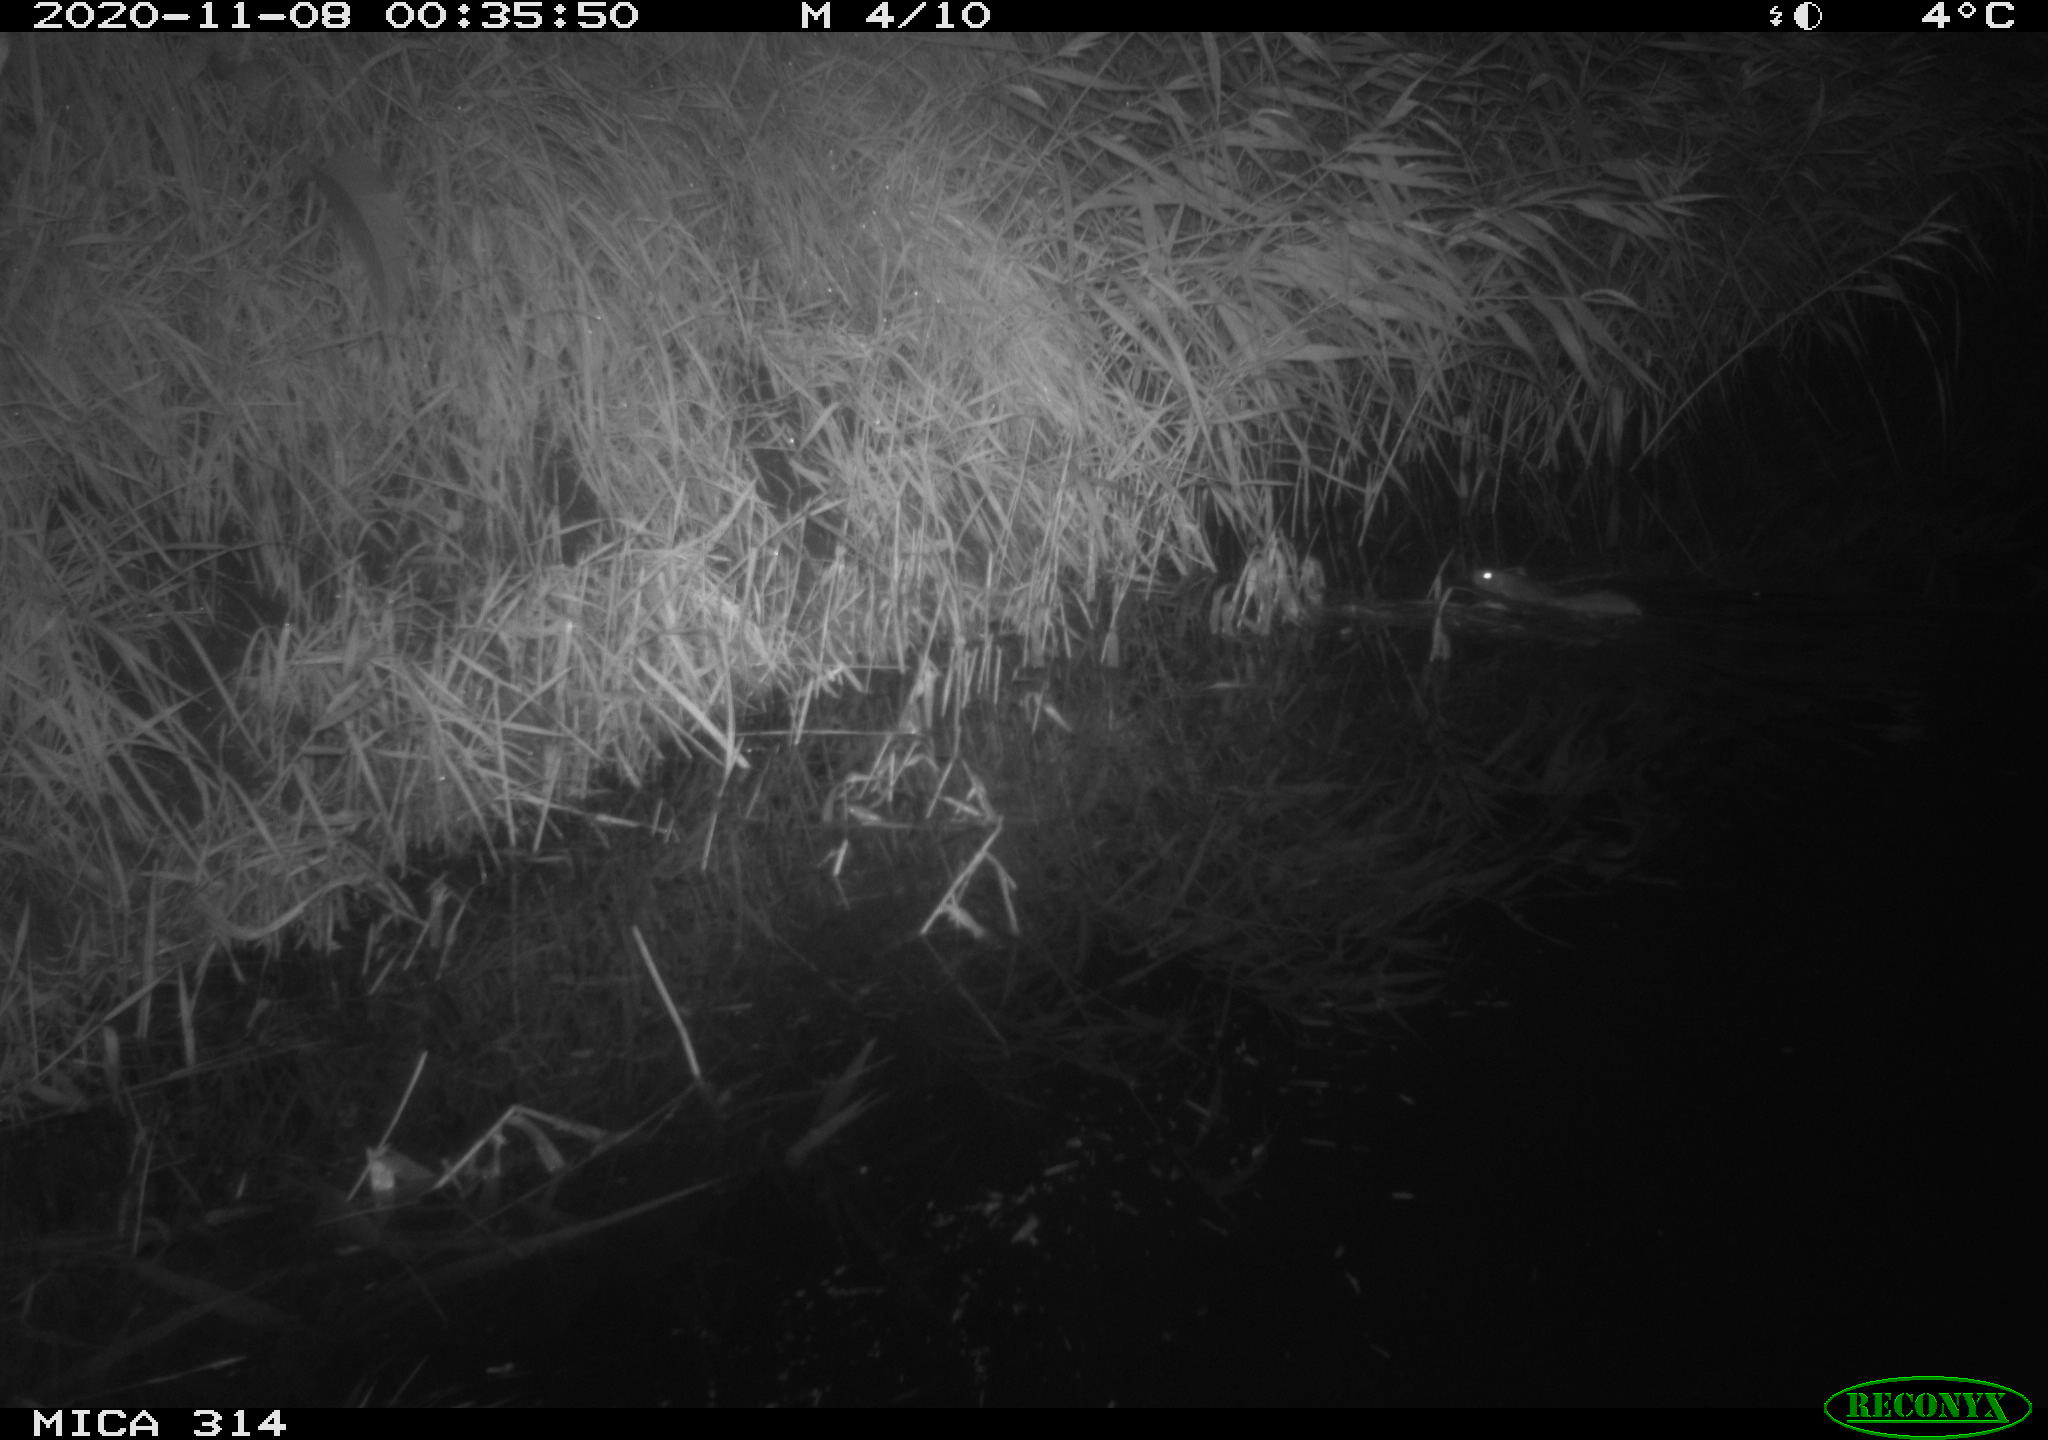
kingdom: Animalia
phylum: Chordata
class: Mammalia
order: Rodentia
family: Muridae
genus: Rattus
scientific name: Rattus norvegicus
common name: Brown rat
